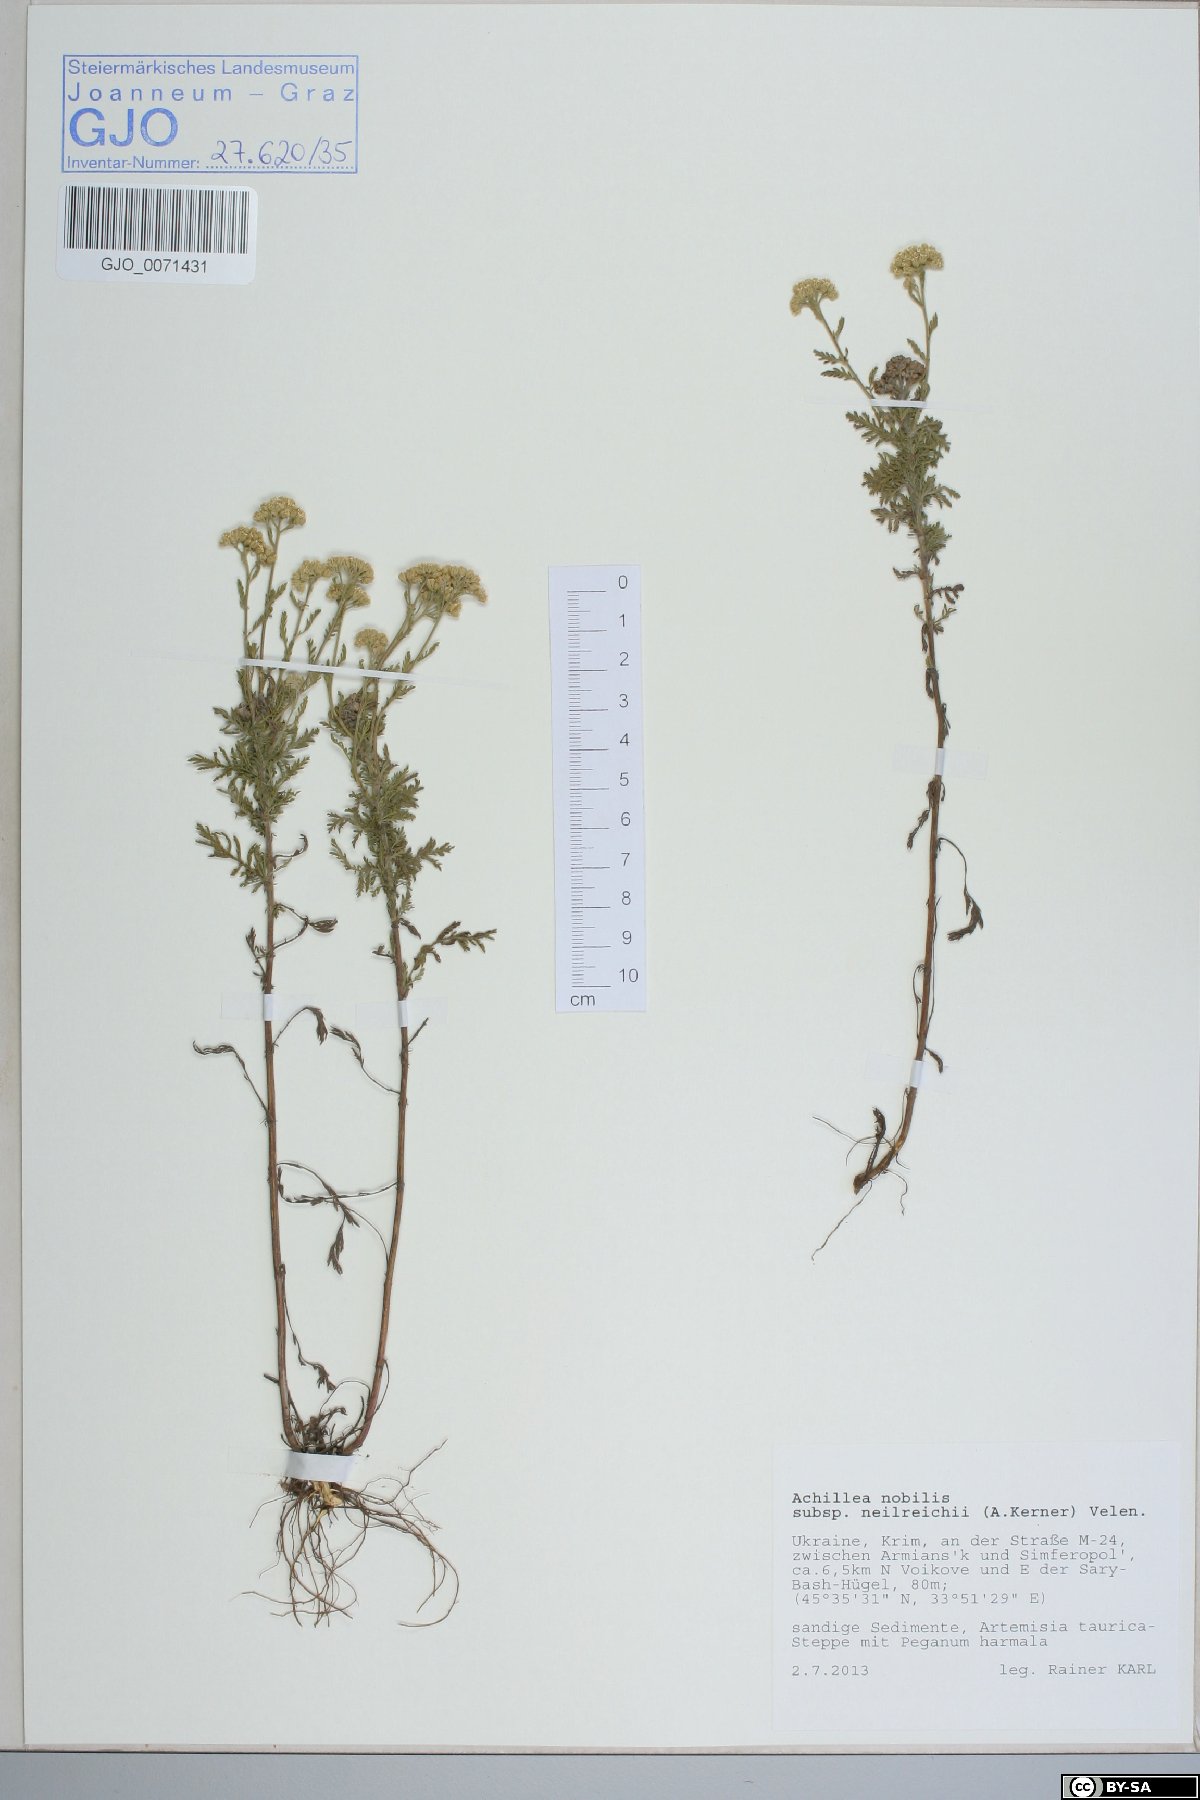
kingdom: Plantae
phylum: Tracheophyta
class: Magnoliopsida
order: Asterales
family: Asteraceae
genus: Achillea
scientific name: Achillea nobilis
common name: Noble yarrow
